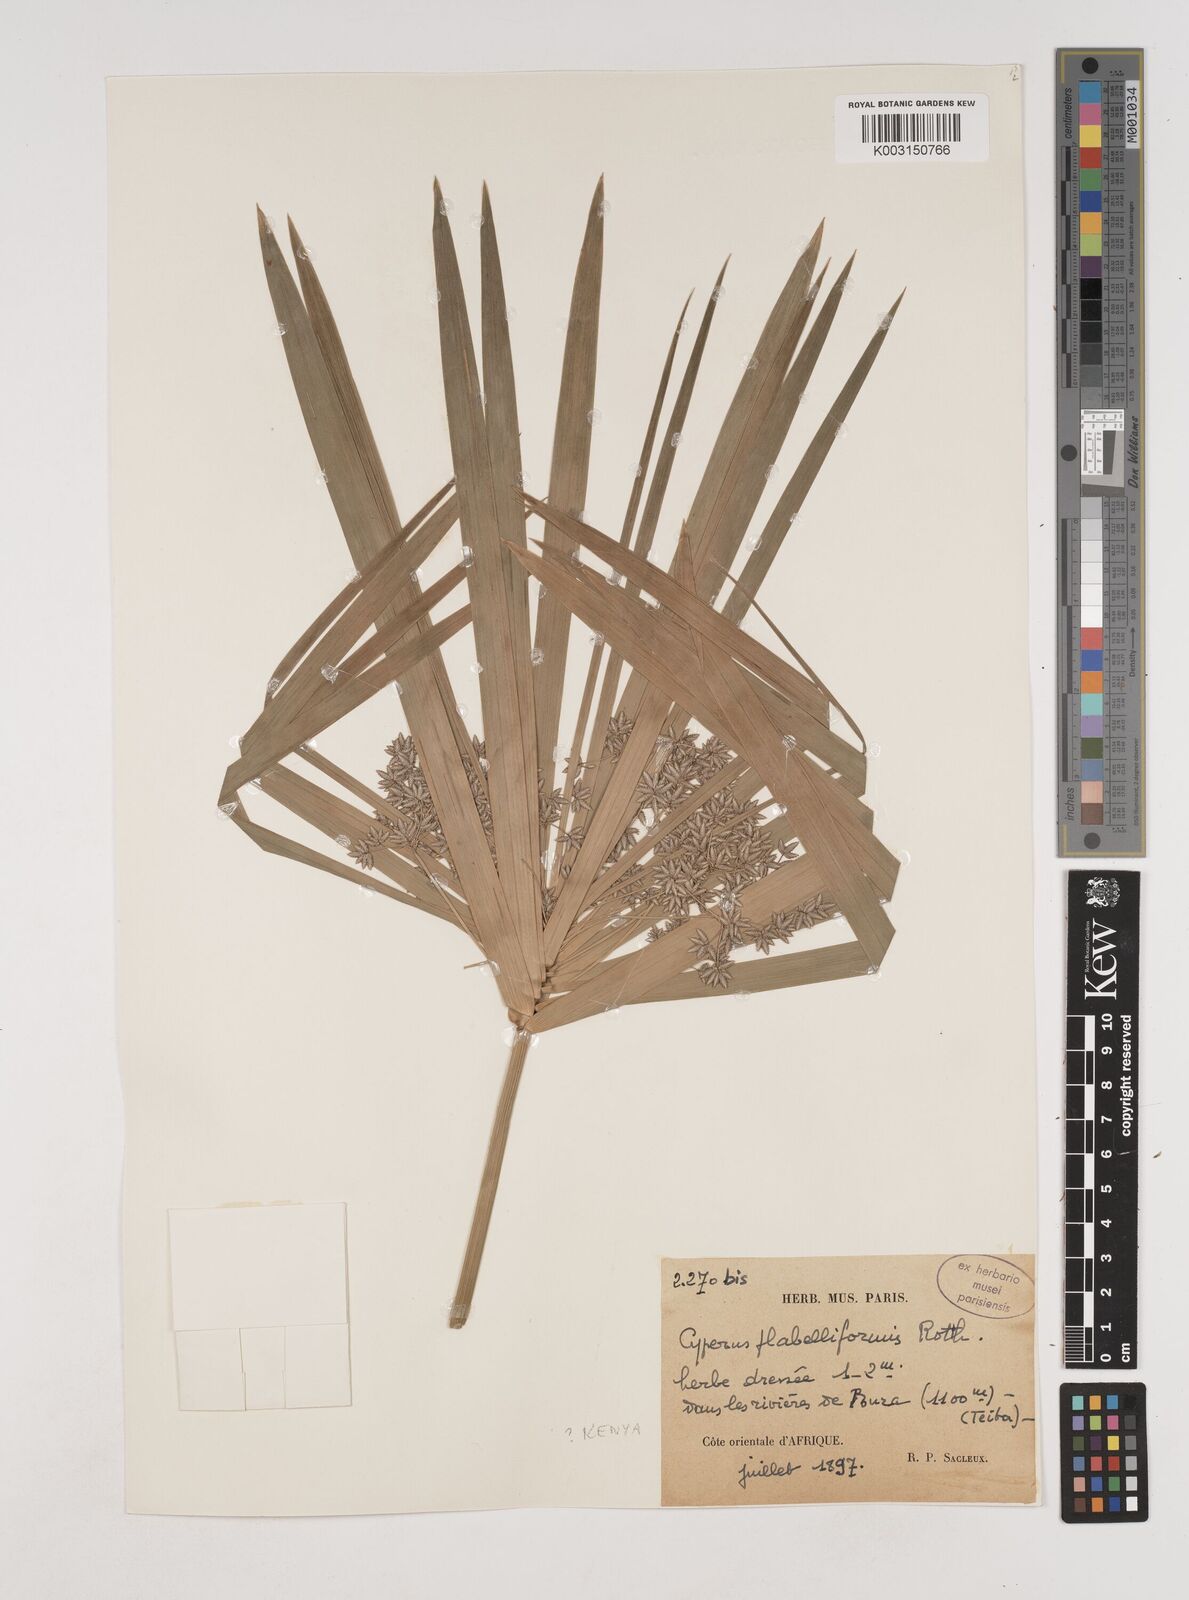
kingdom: Plantae
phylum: Tracheophyta
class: Liliopsida
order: Poales
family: Cyperaceae
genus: Cyperus
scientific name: Cyperus alternifolius
